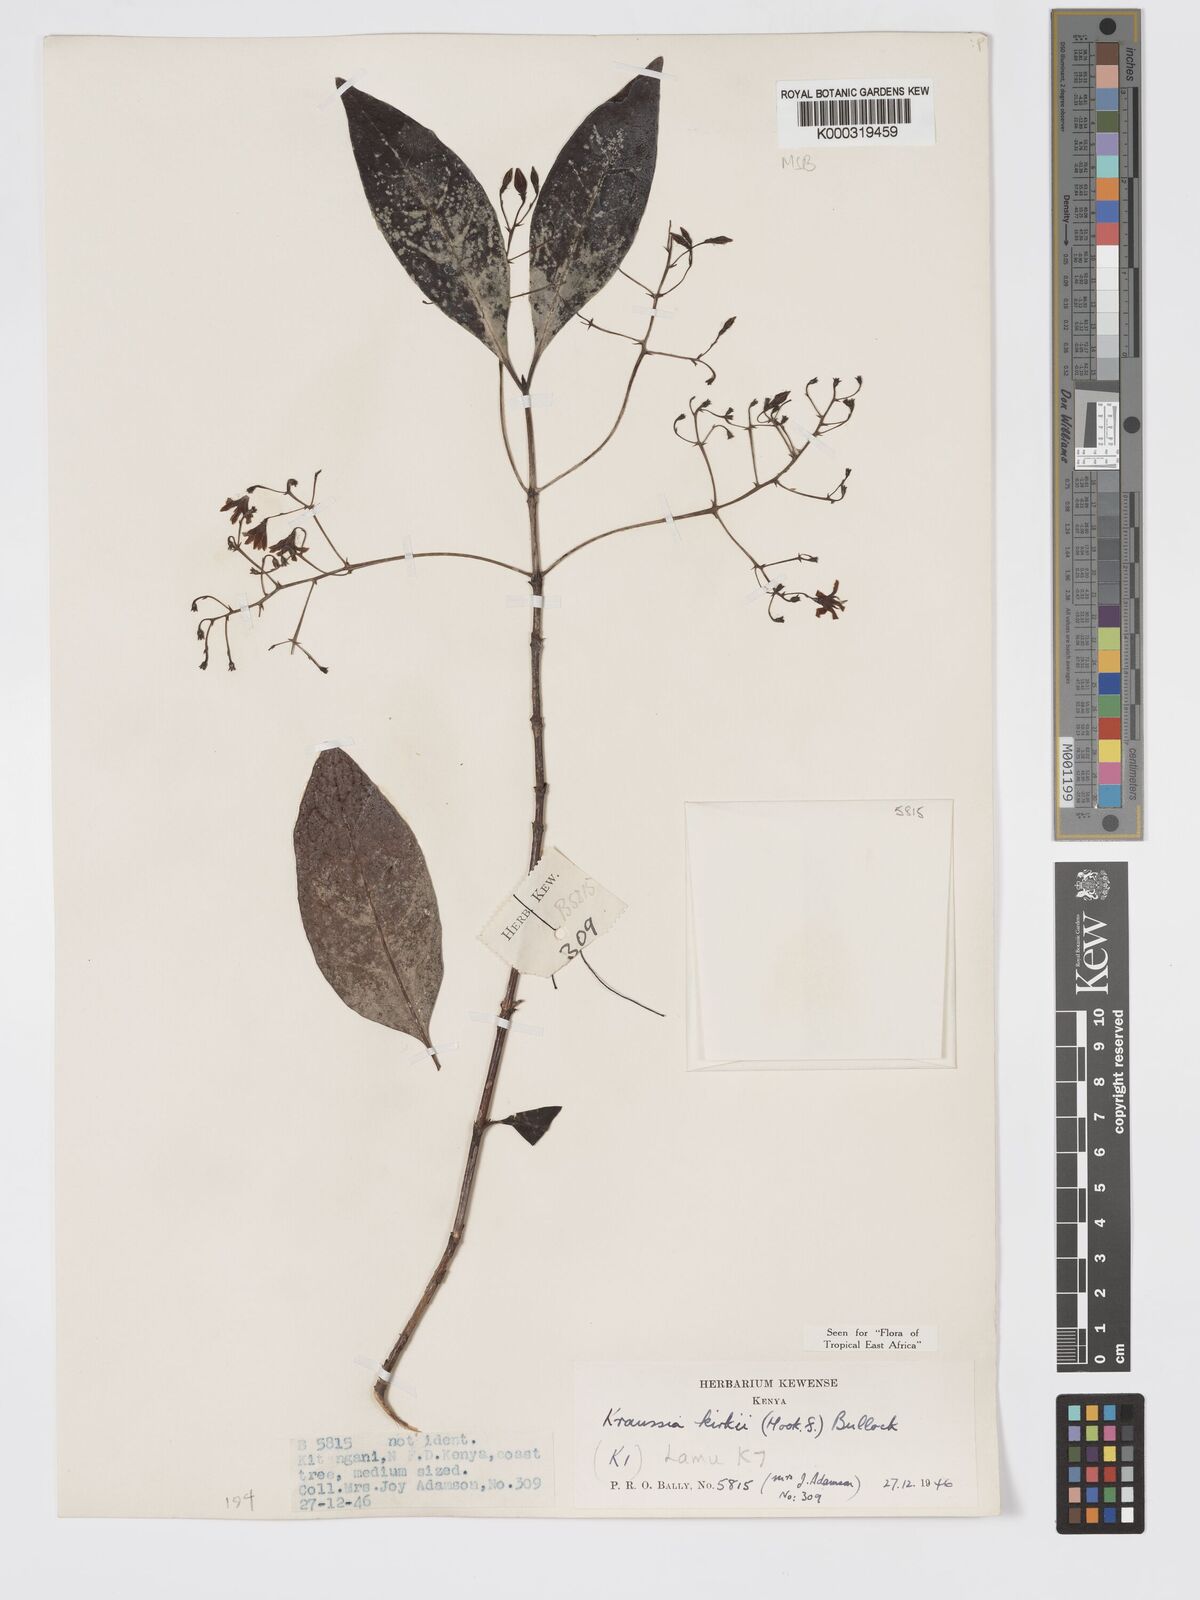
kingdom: Plantae
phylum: Tracheophyta
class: Magnoliopsida
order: Gentianales
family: Rubiaceae
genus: Kraussia
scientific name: Kraussia kirkii
